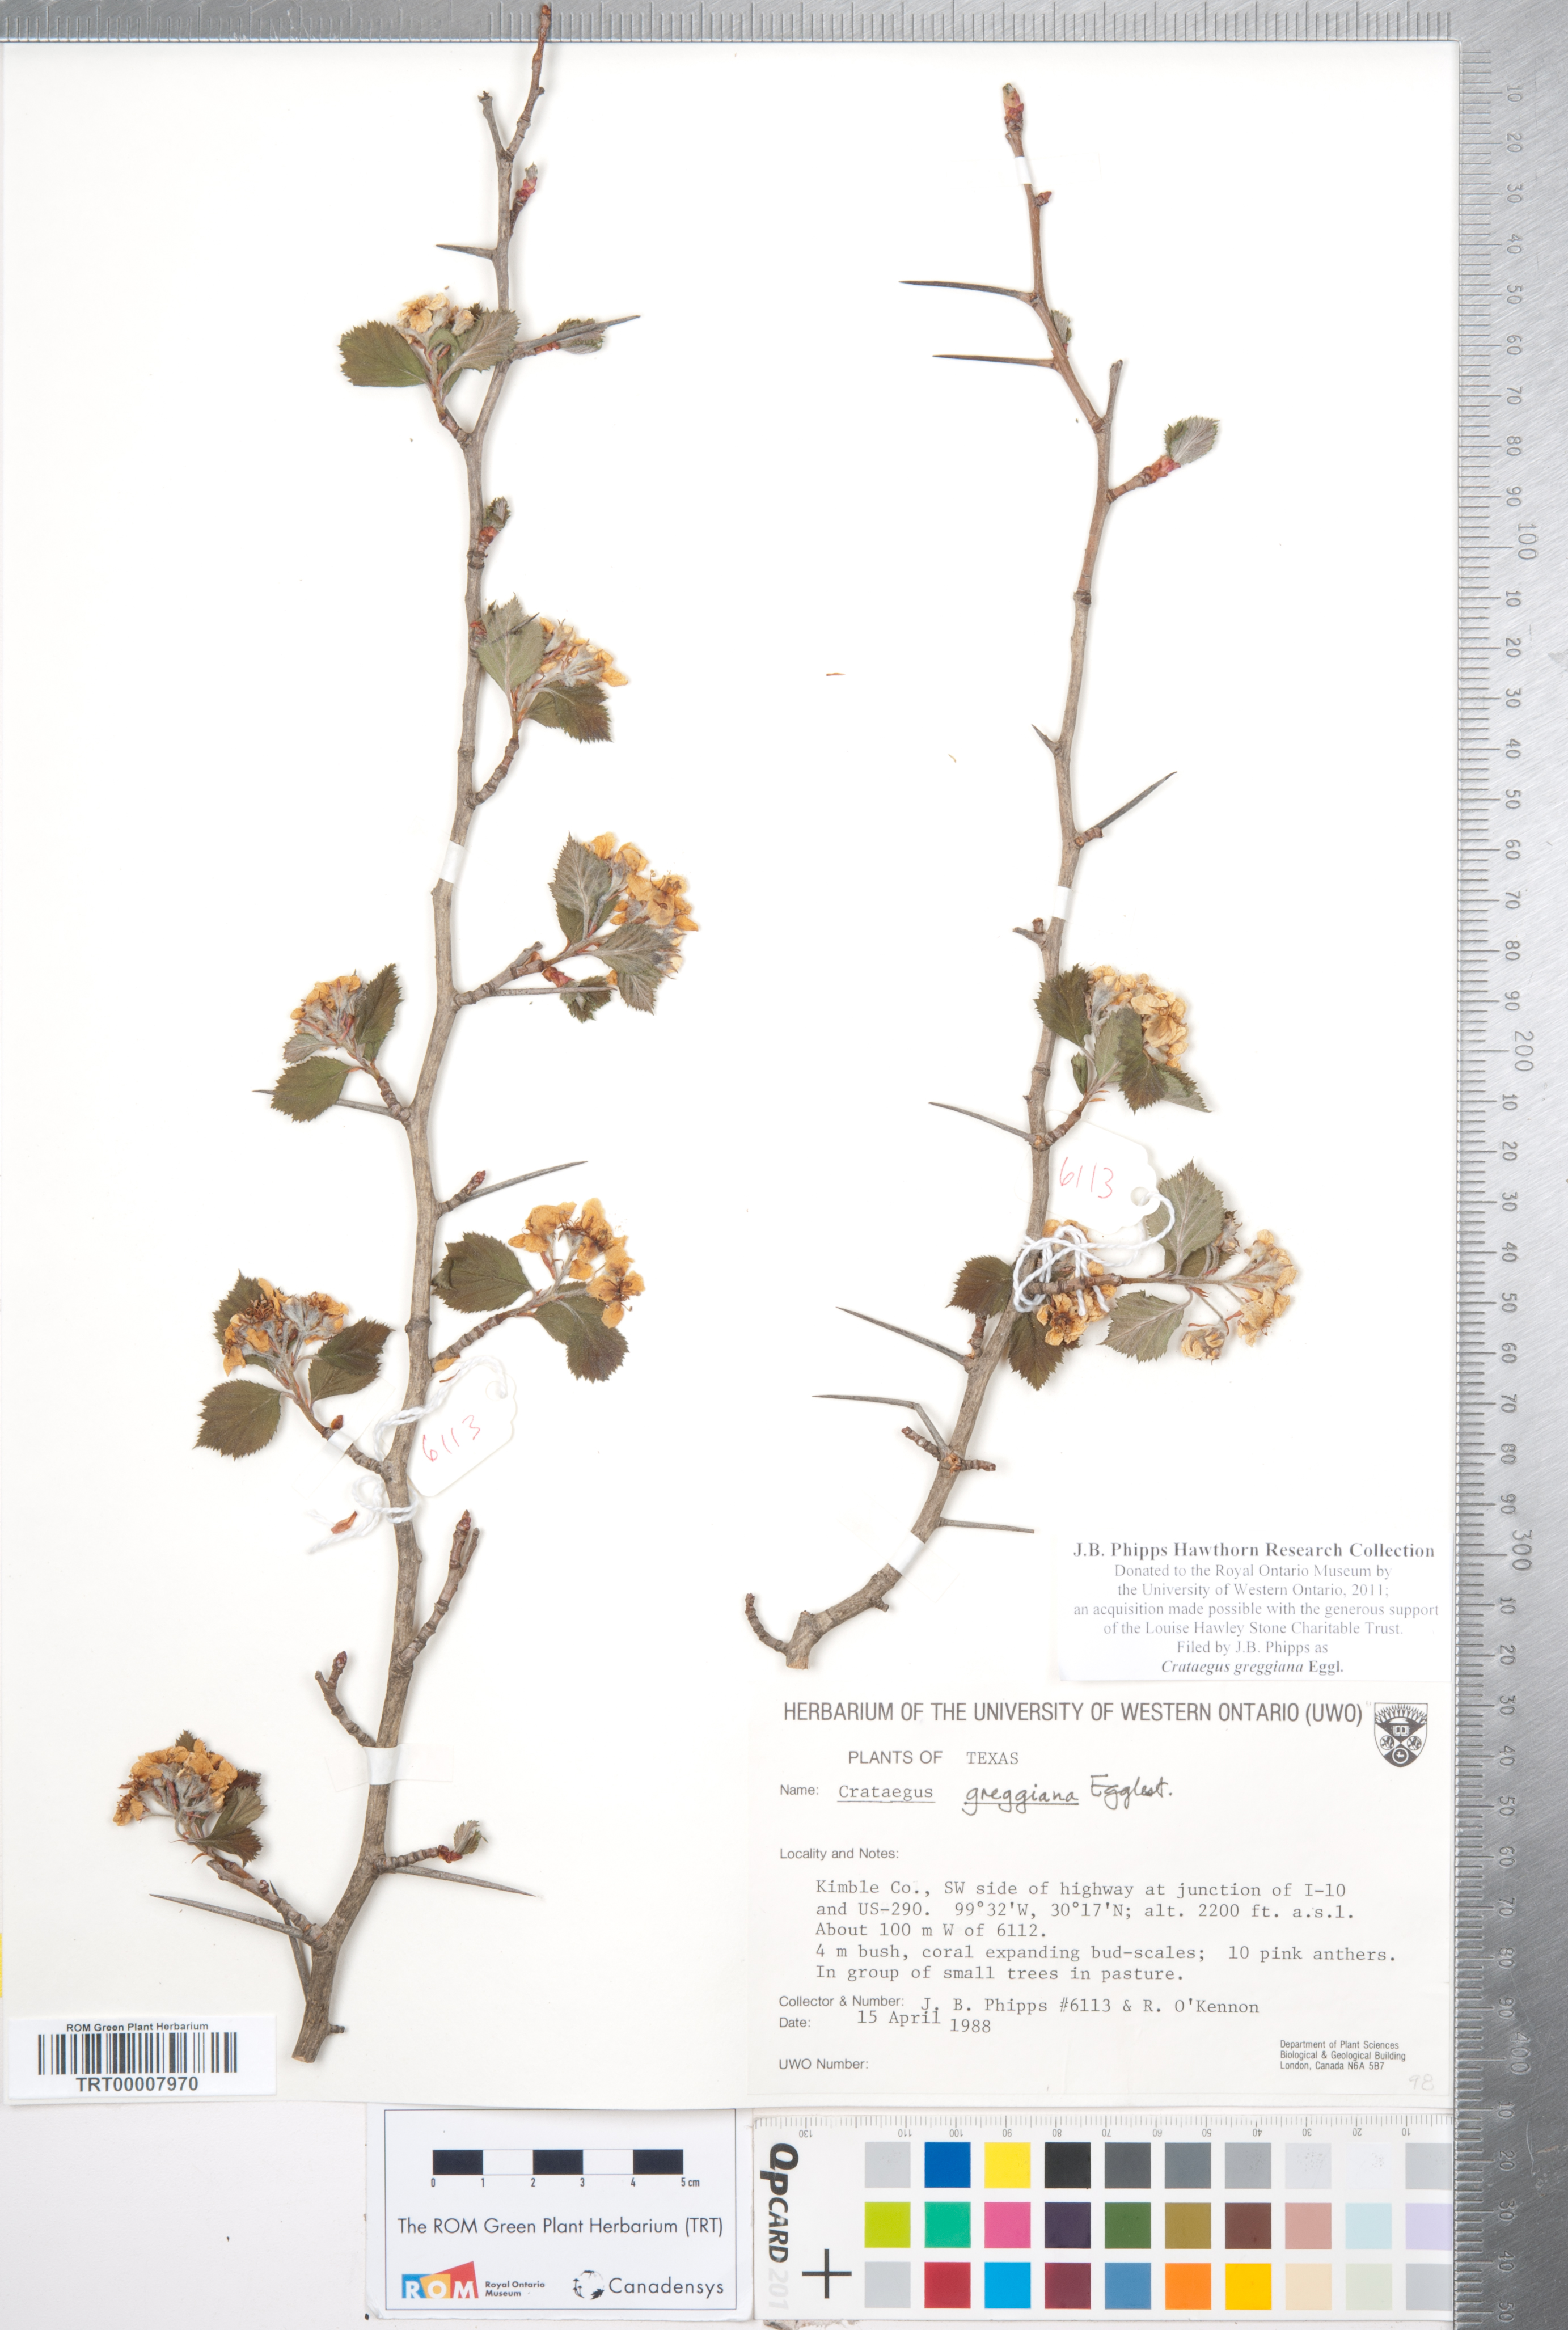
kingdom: Plantae
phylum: Tracheophyta
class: Magnoliopsida
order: Rosales
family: Rosaceae
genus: Crataegus
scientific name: Crataegus greggiana
